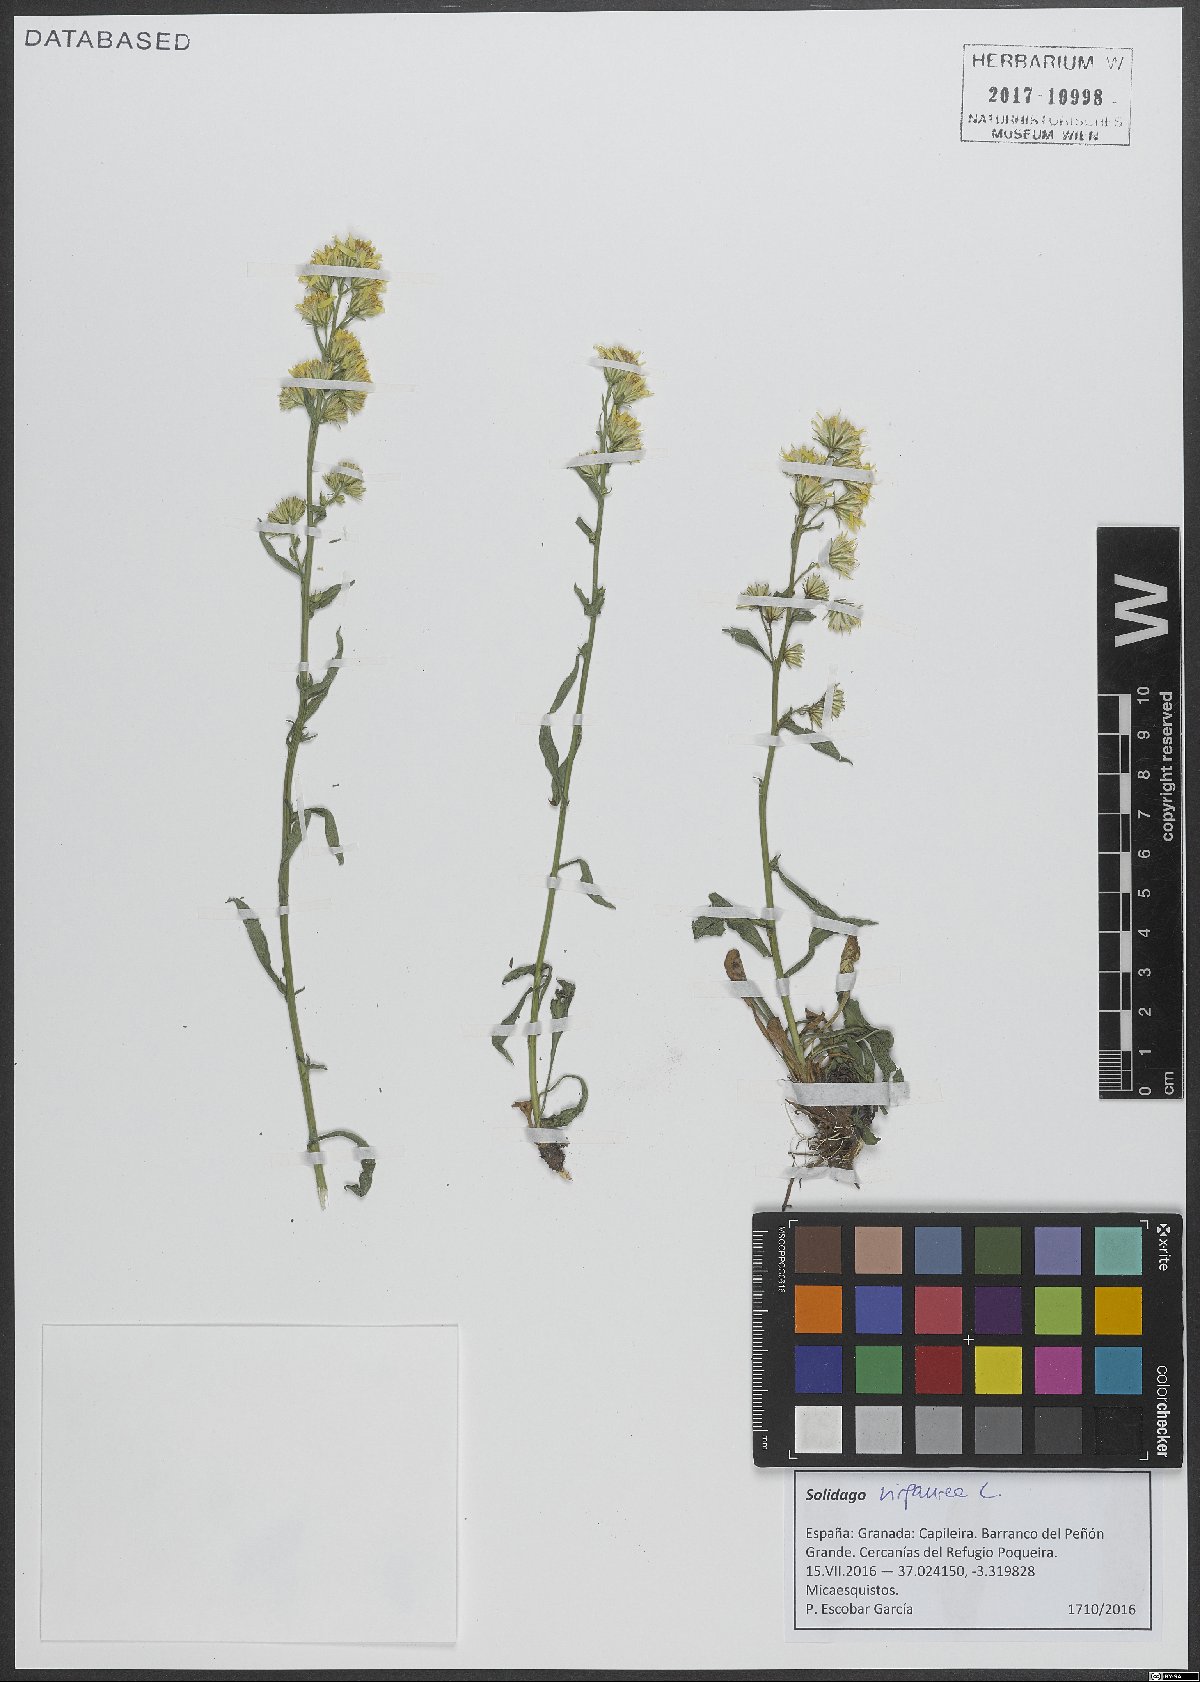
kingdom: Plantae
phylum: Tracheophyta
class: Magnoliopsida
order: Asterales
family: Asteraceae
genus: Solidago
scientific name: Solidago virgaurea
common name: Goldenrod
